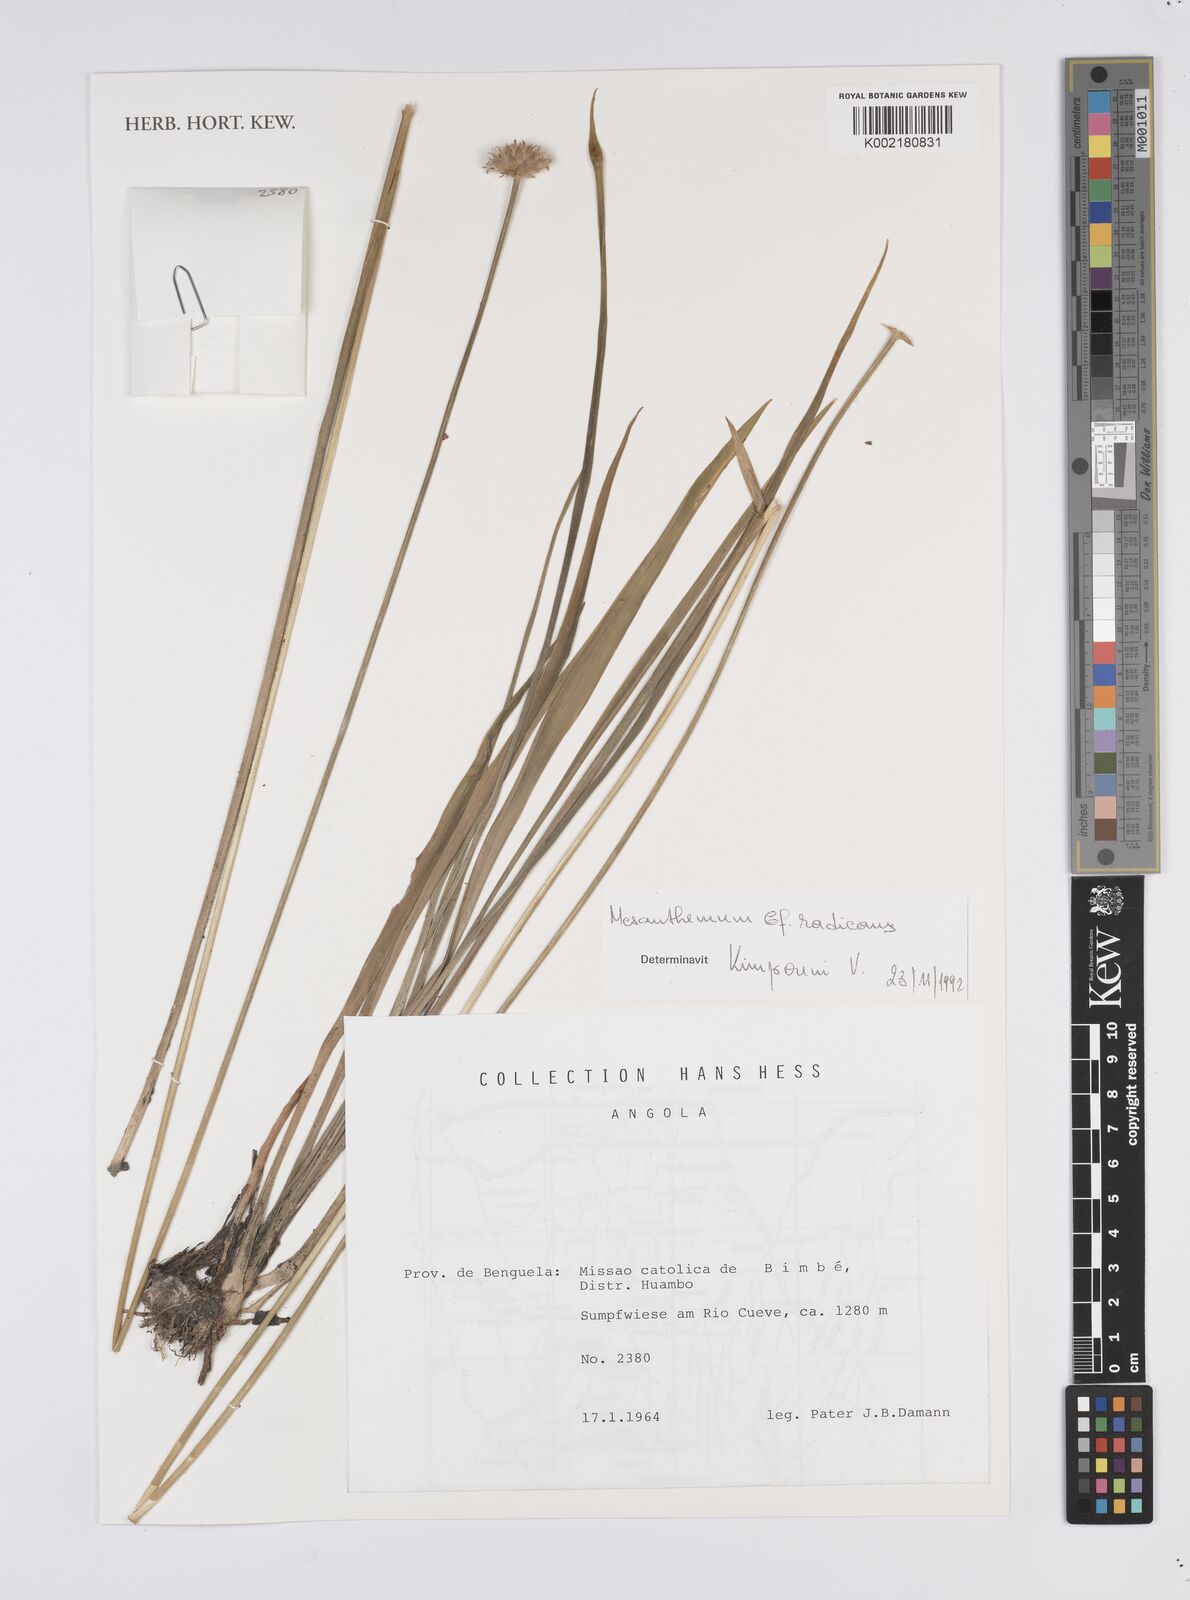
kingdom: Plantae
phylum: Tracheophyta
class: Liliopsida
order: Poales
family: Eriocaulaceae
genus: Mesanthemum
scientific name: Mesanthemum radicans
